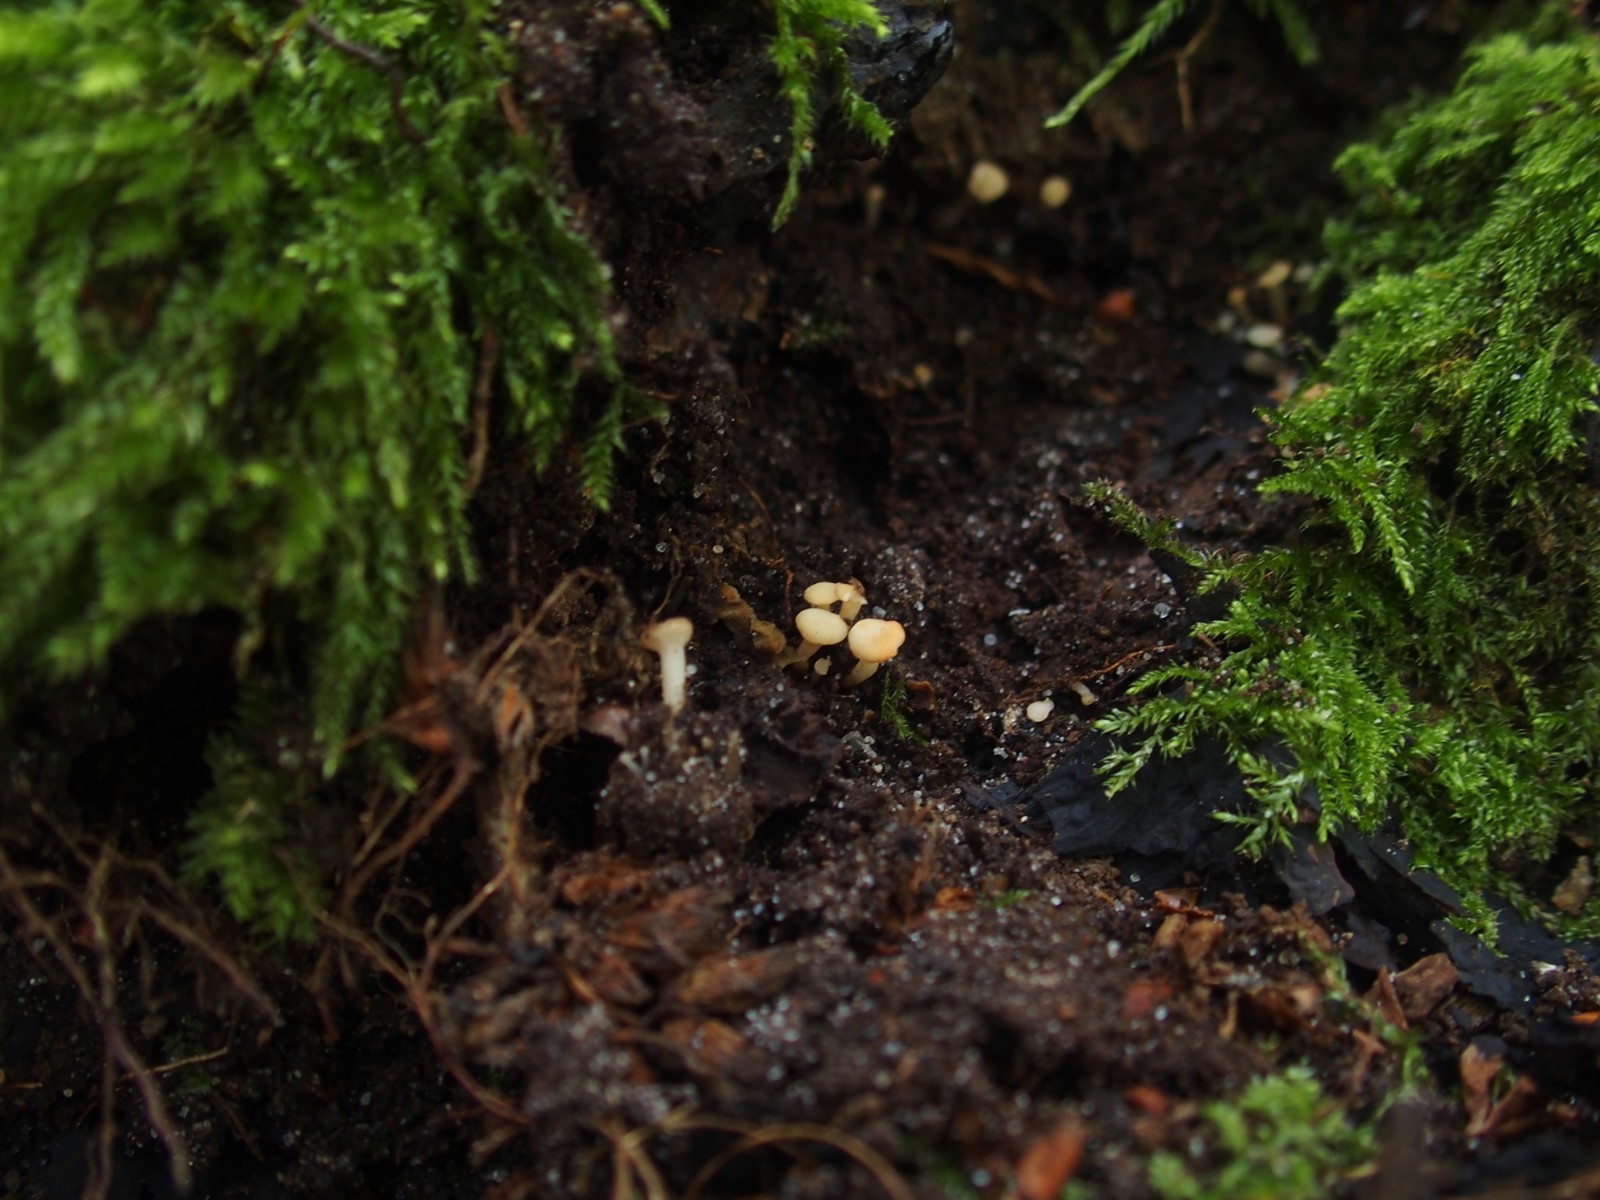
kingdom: Fungi
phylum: Ascomycota
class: Leotiomycetes
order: Helotiales
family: Tricladiaceae
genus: Cudoniella
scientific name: Cudoniella acicularis
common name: ege-dyndskive
